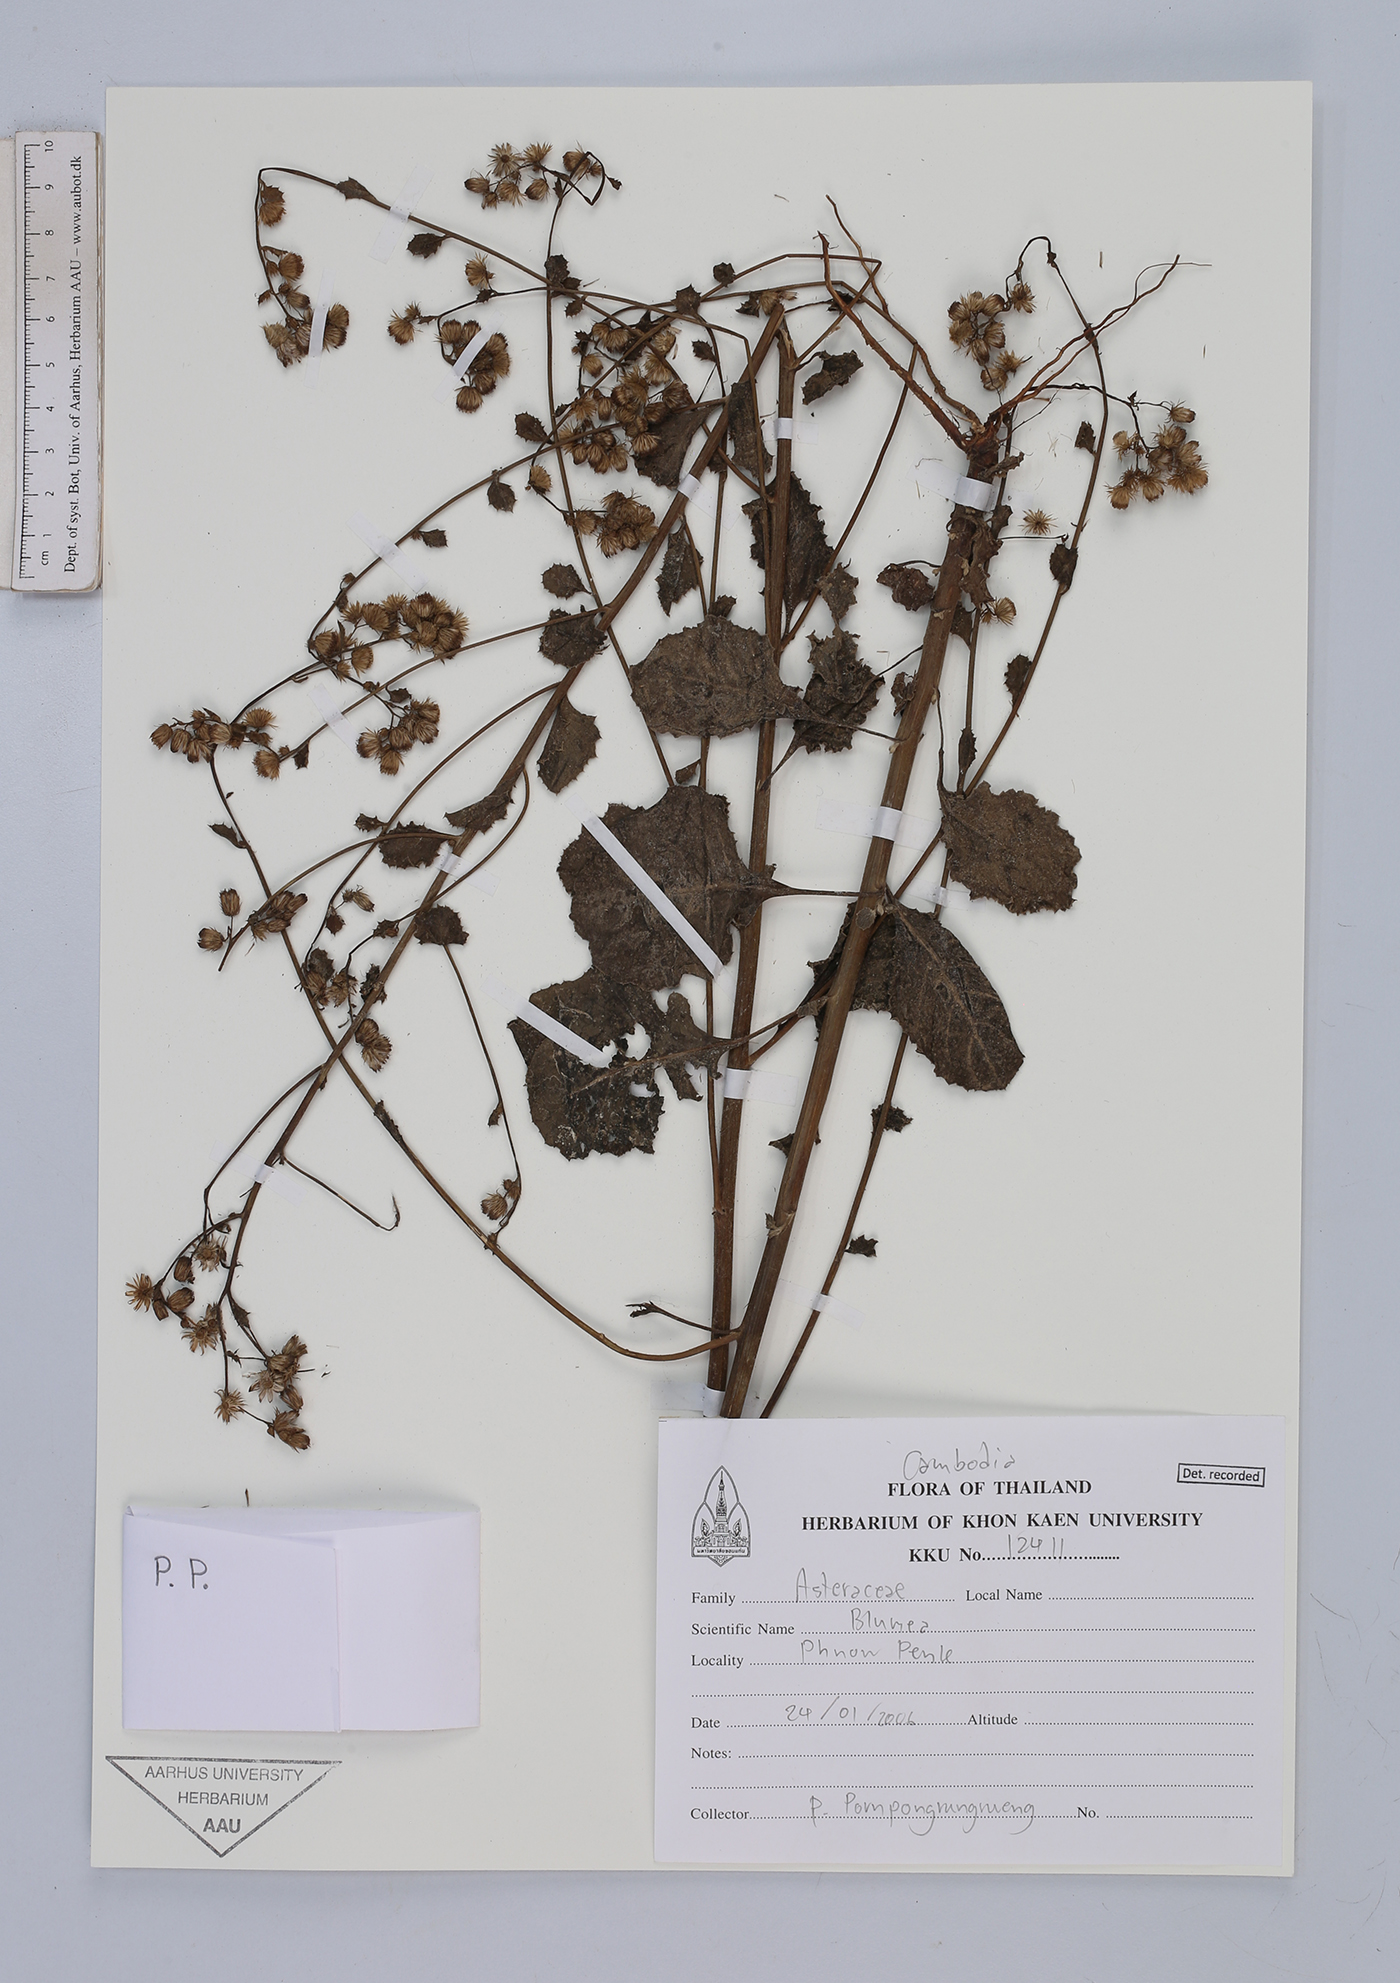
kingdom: Plantae
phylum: Tracheophyta
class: Magnoliopsida
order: Asterales
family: Asteraceae
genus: Blumea
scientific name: Blumea
